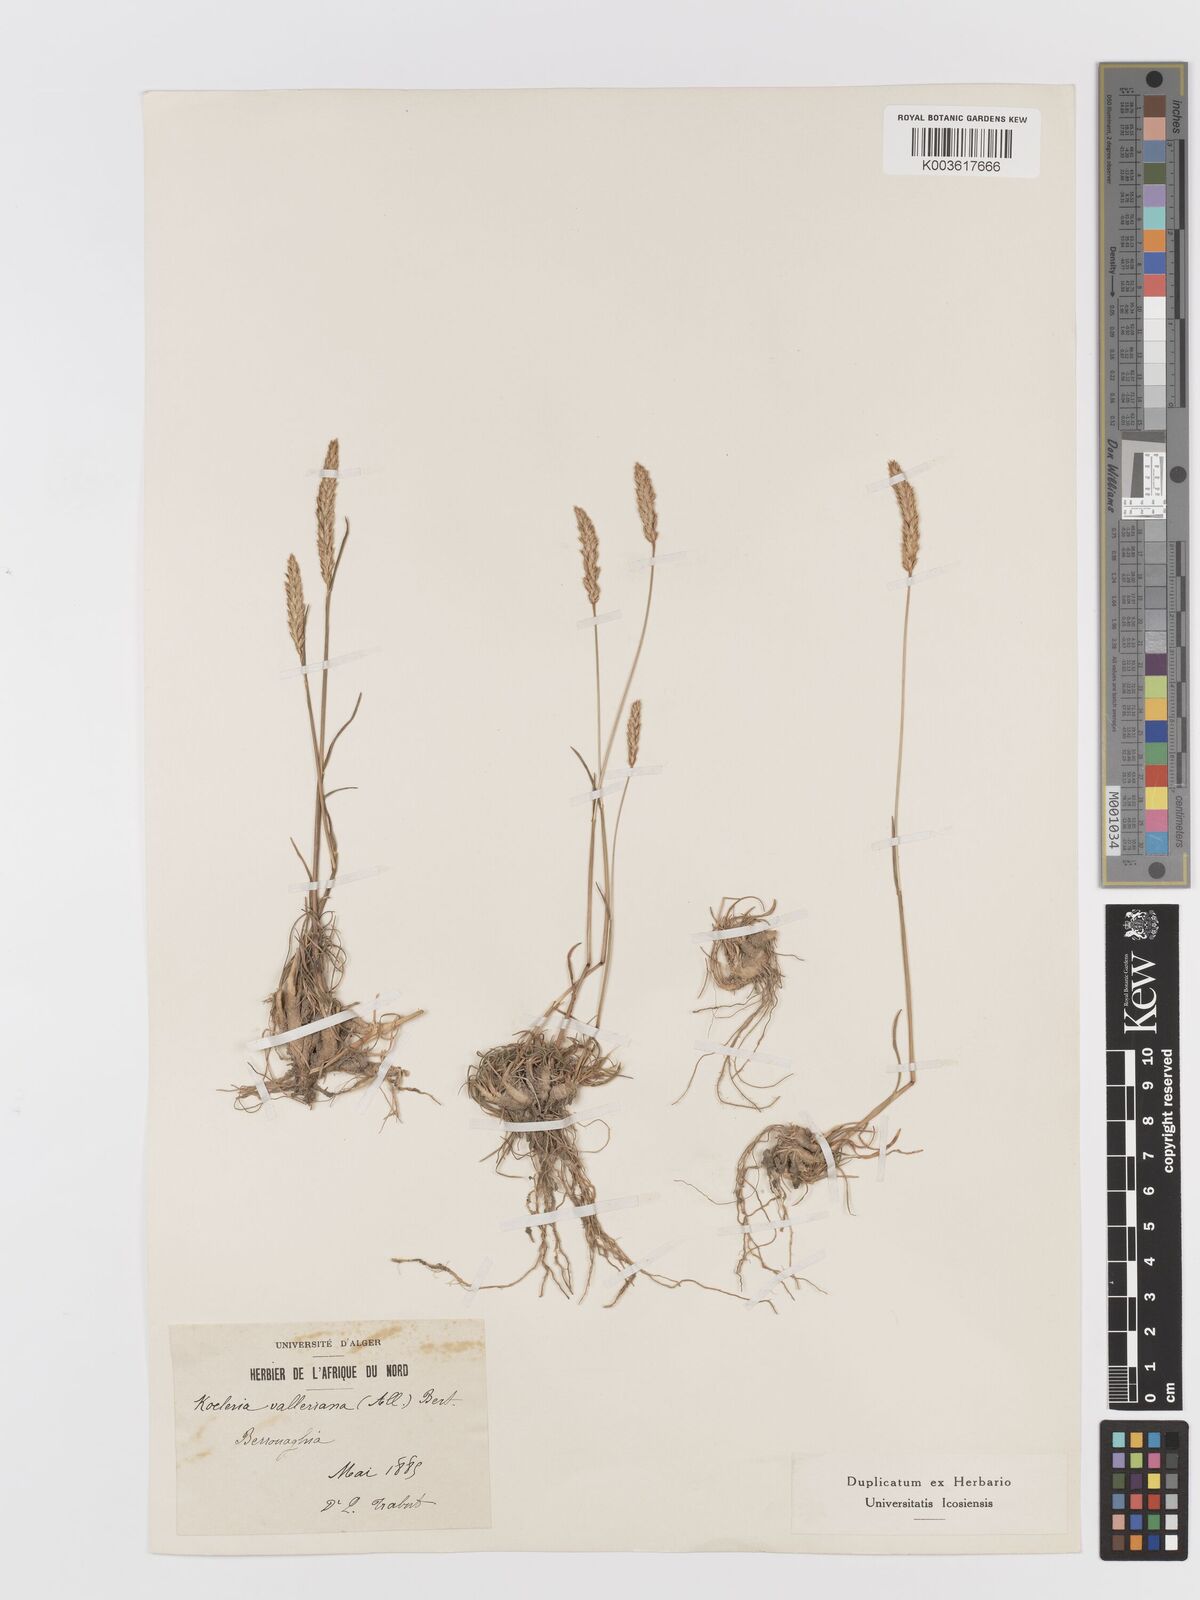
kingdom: Plantae
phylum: Tracheophyta
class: Liliopsida
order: Poales
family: Poaceae
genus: Koeleria
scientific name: Koeleria vallesiana
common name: Somerset hair-grass
